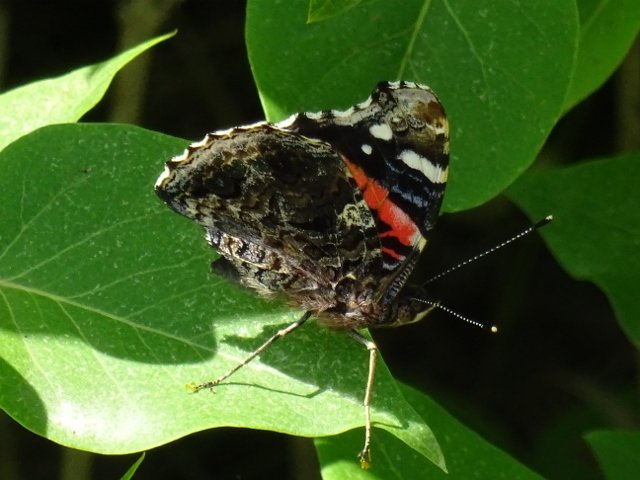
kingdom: Animalia
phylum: Arthropoda
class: Insecta
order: Lepidoptera
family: Nymphalidae
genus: Vanessa
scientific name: Vanessa atalanta
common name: Red Admiral
